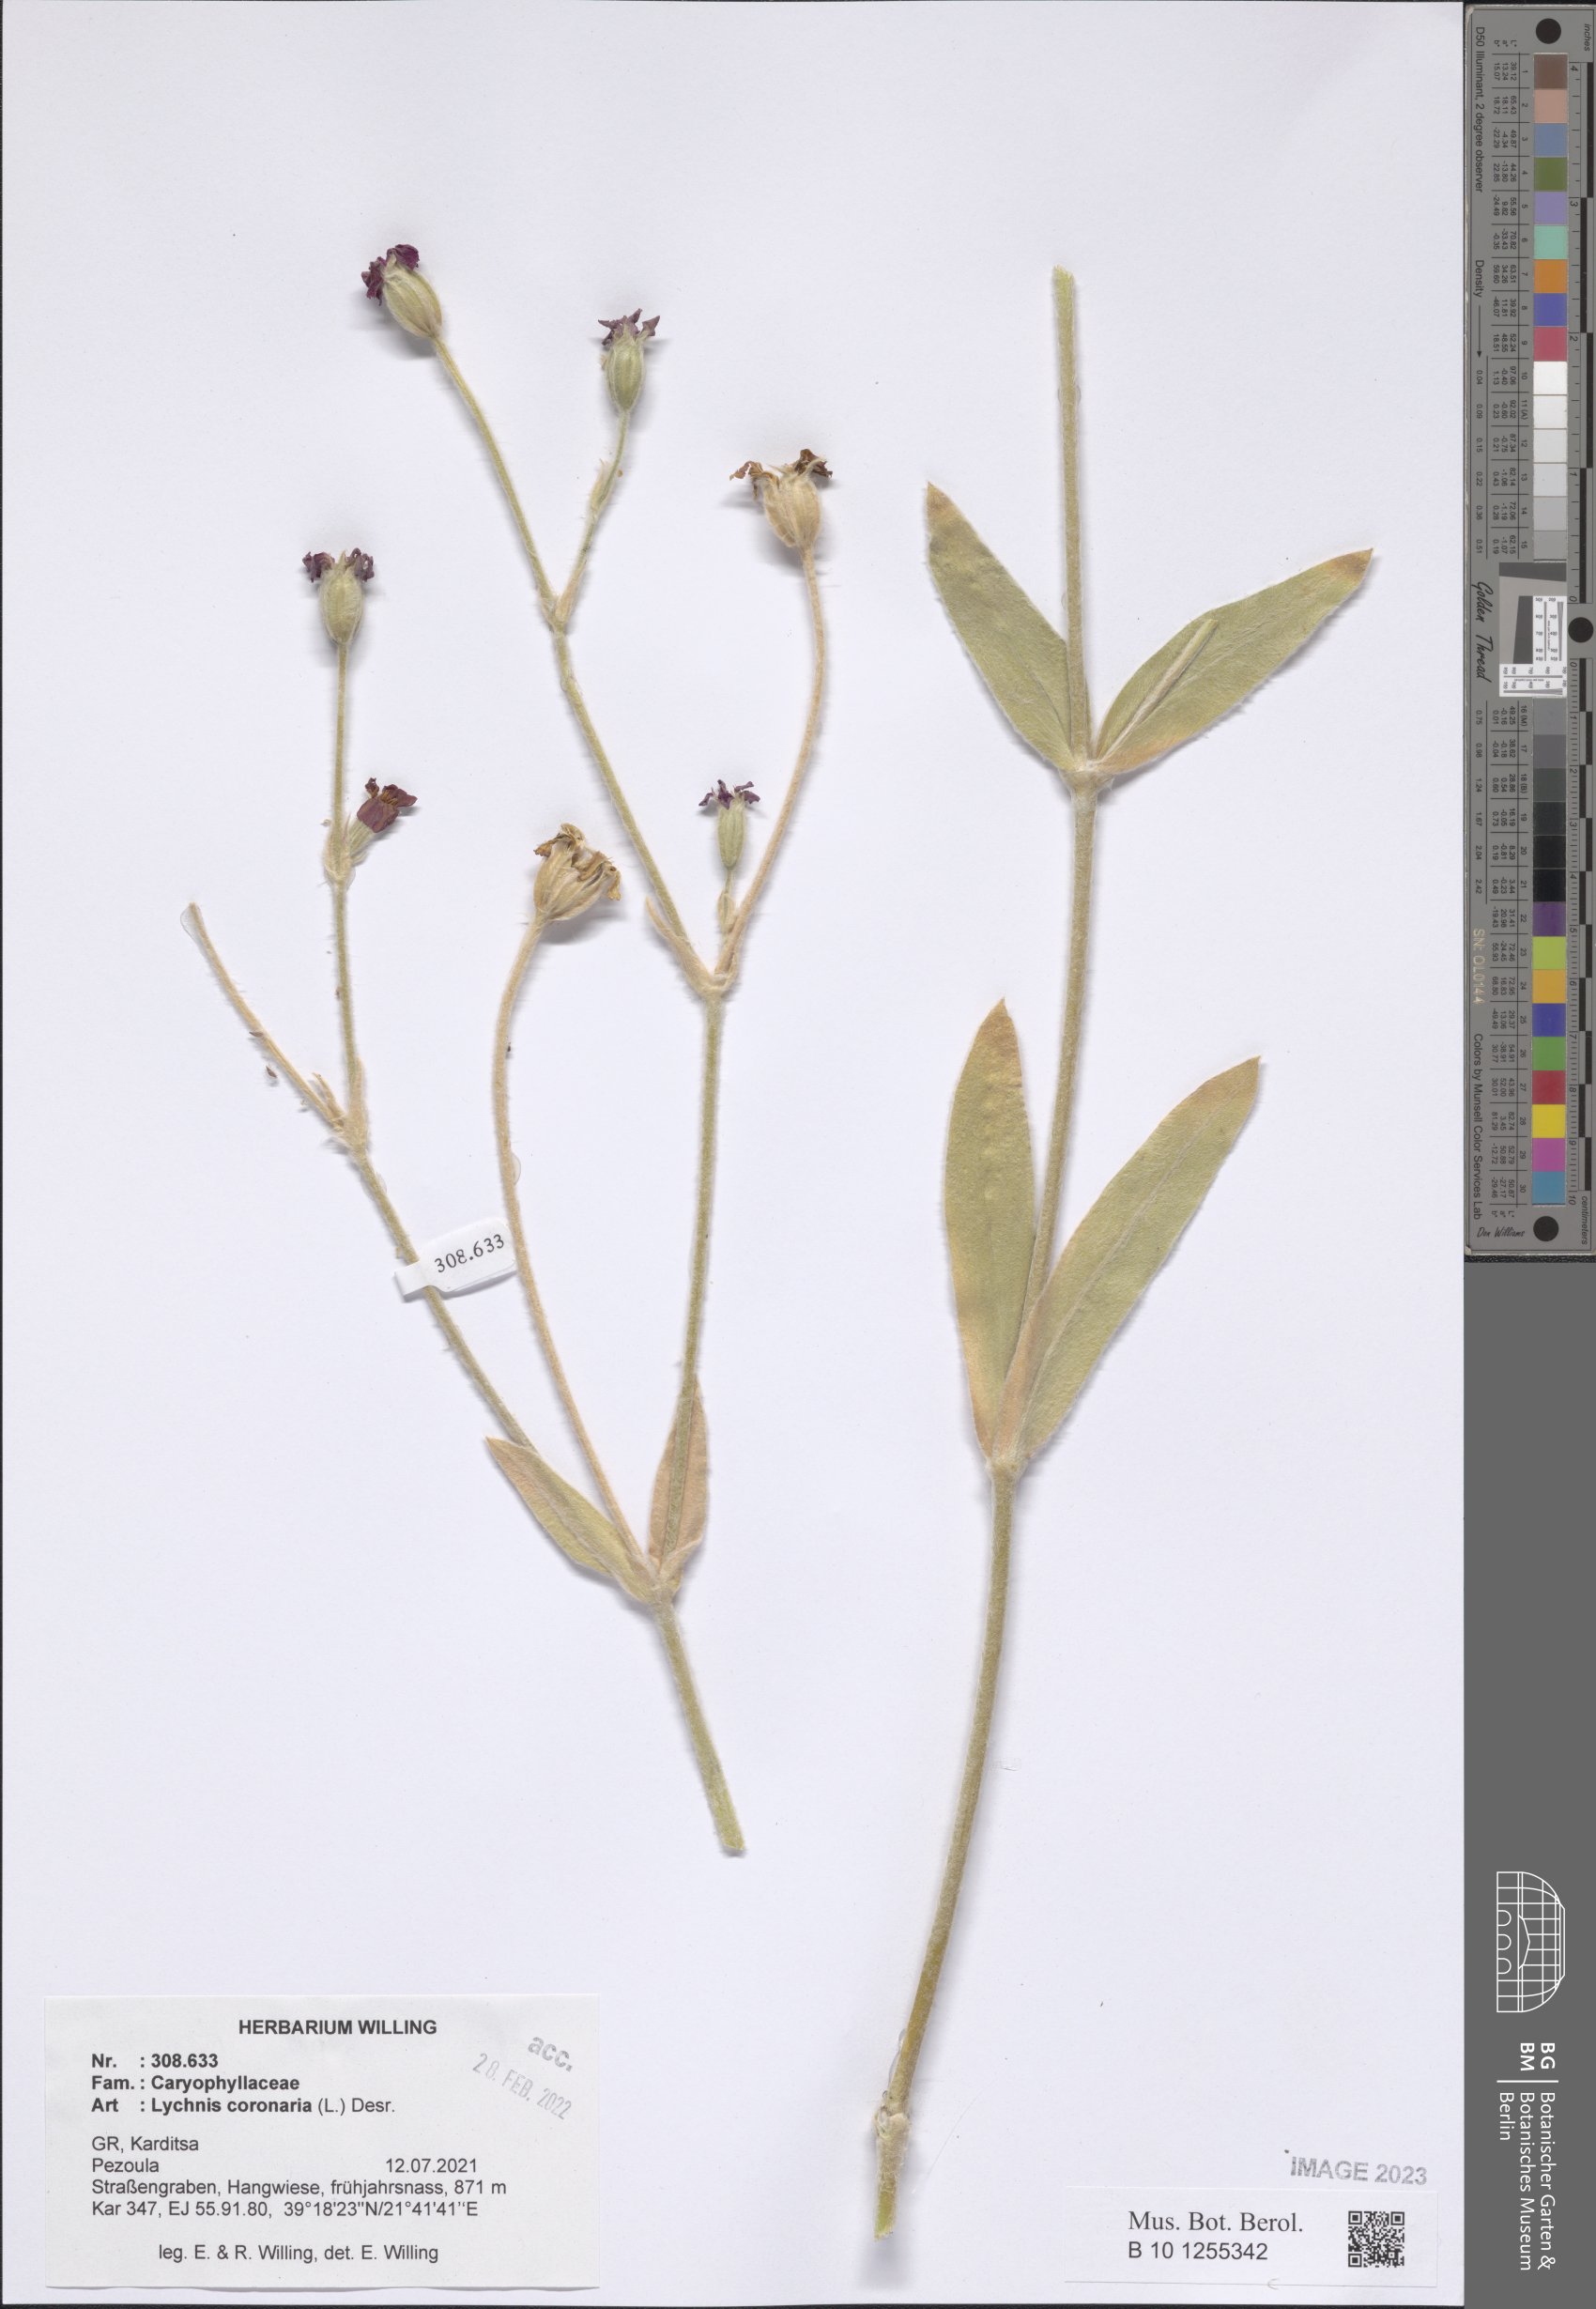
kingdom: Plantae
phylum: Tracheophyta
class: Magnoliopsida
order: Caryophyllales
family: Caryophyllaceae
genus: Silene
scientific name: Silene coronaria
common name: Rose campion
